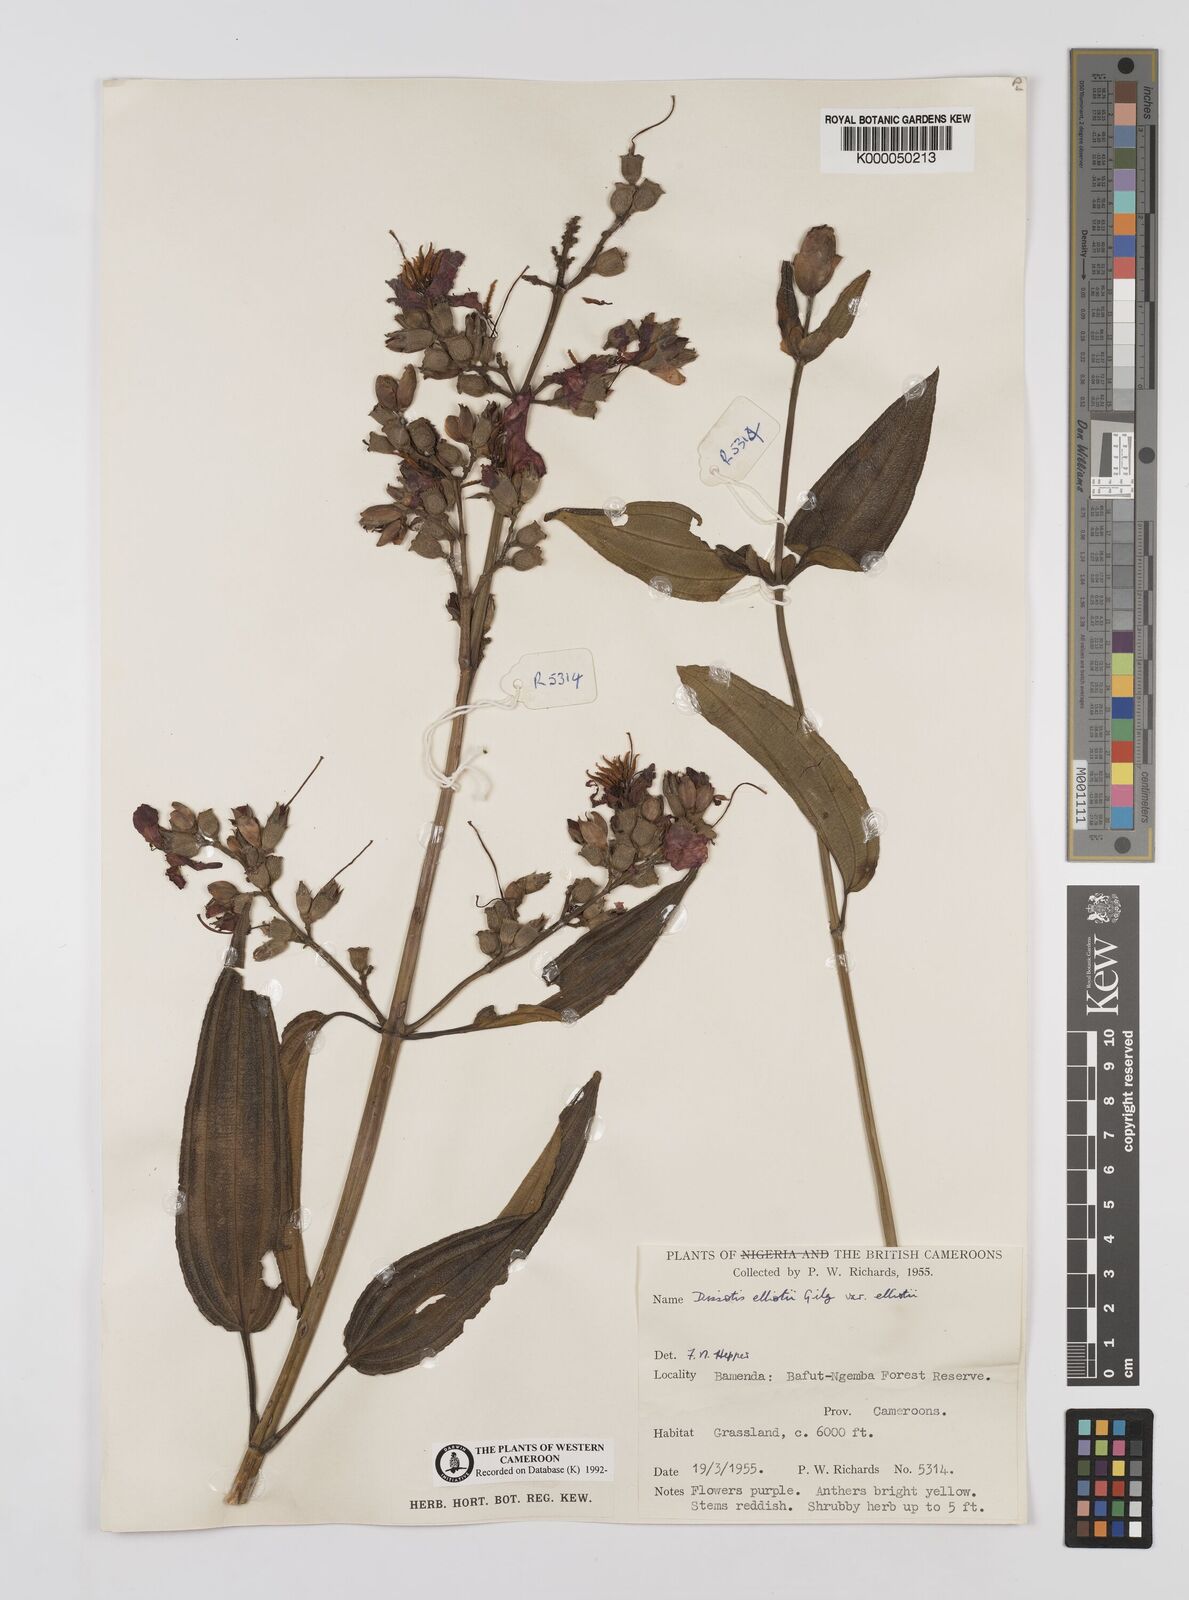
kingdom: Plantae
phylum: Tracheophyta
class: Magnoliopsida
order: Myrtales
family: Melastomataceae
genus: Dissotis
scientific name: Dissotis
